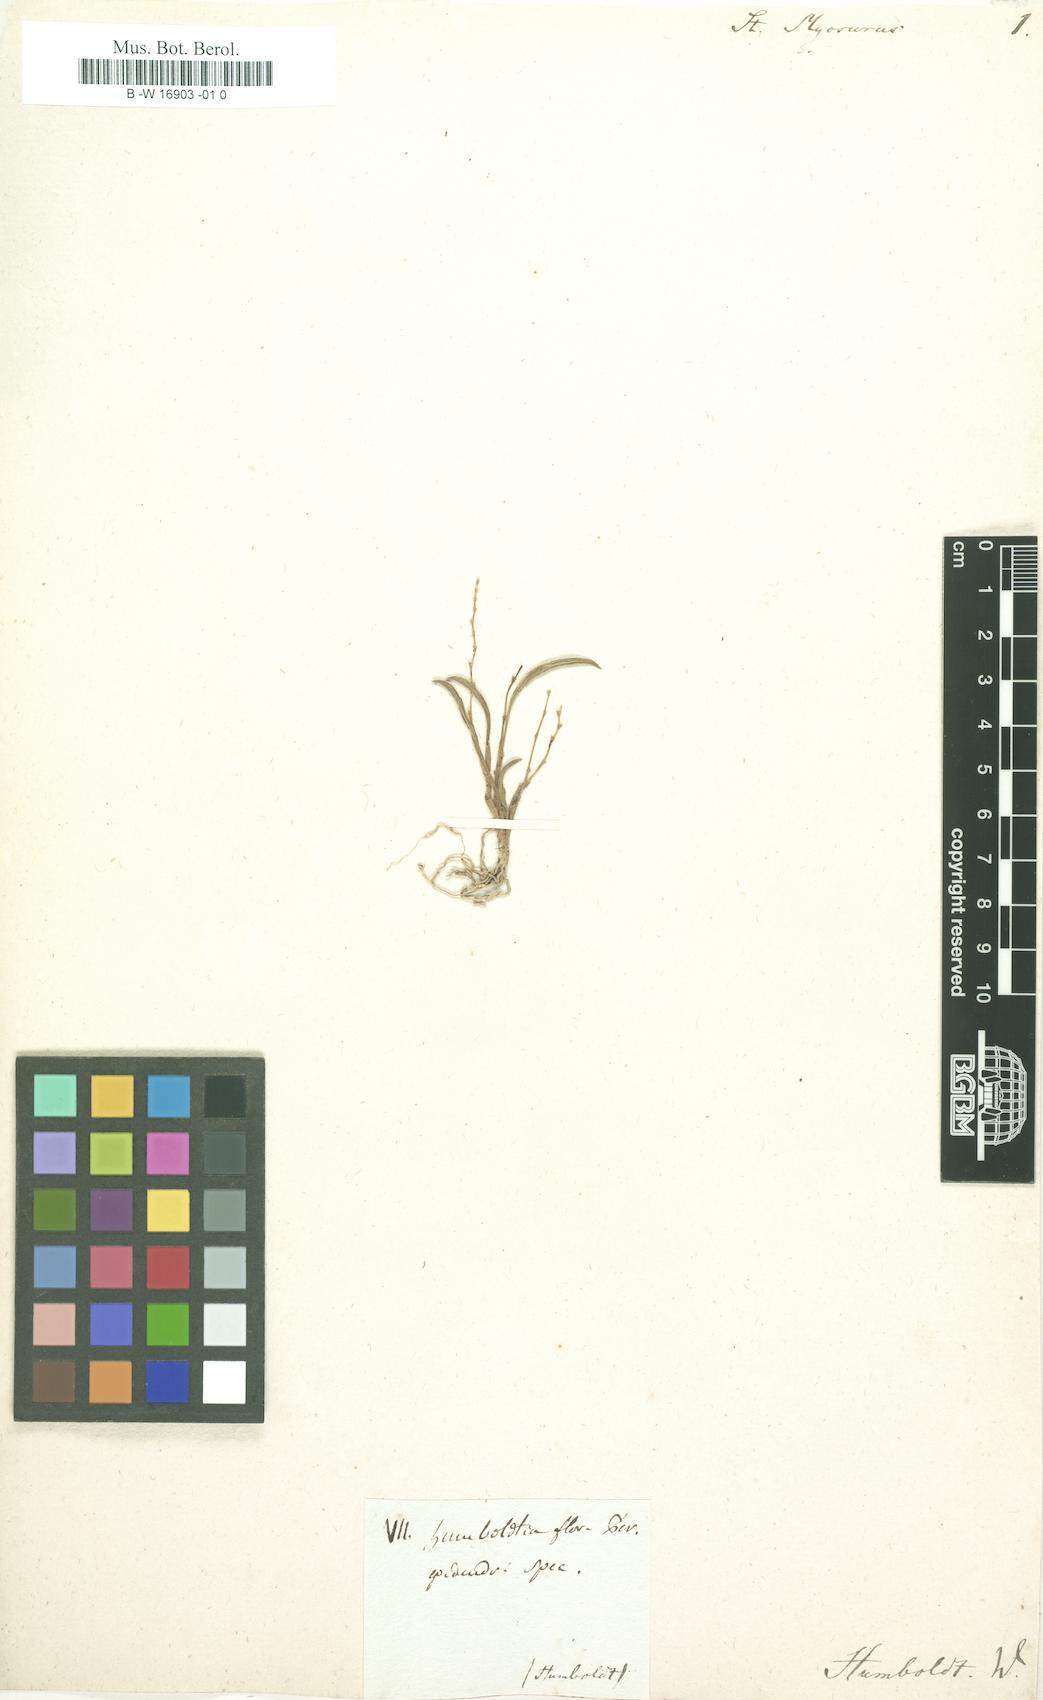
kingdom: Plantae
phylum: Tracheophyta
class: Liliopsida
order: Asparagales
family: Orchidaceae
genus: Stelis
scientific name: Stelis
